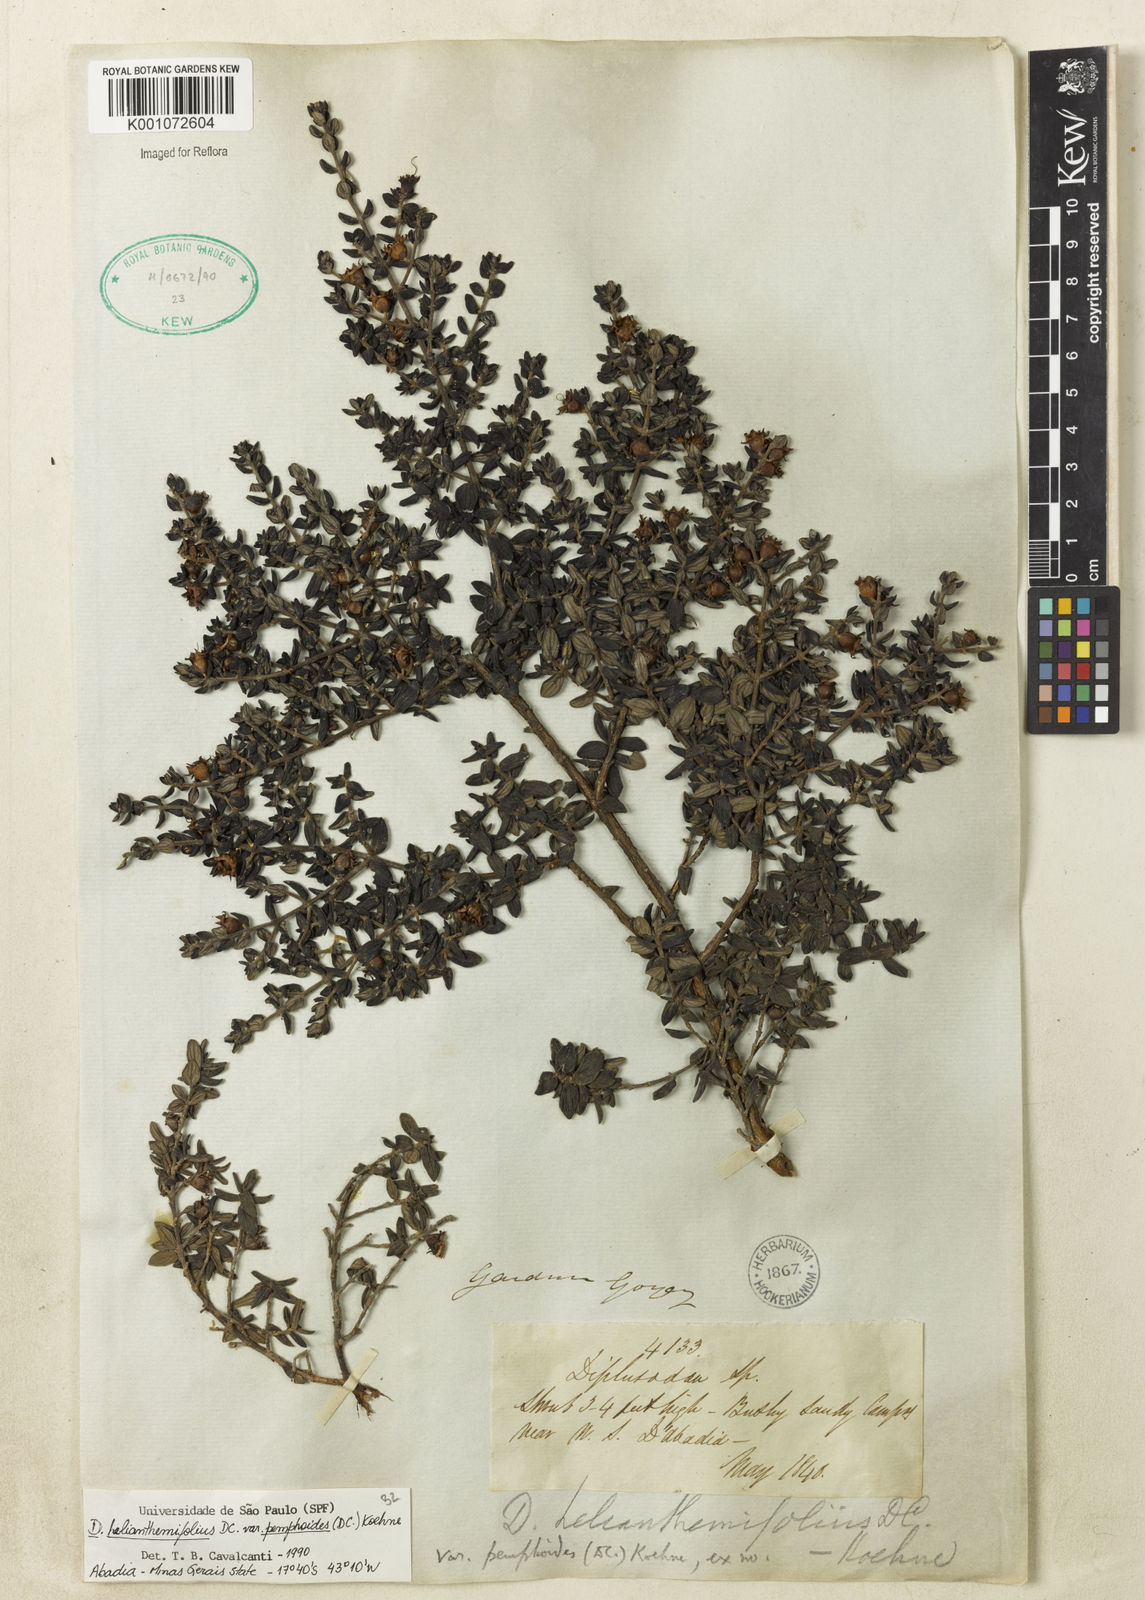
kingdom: Plantae
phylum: Tracheophyta
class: Magnoliopsida
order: Myrtales
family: Lythraceae
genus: Diplusodon
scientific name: Diplusodon helianthemifolius
